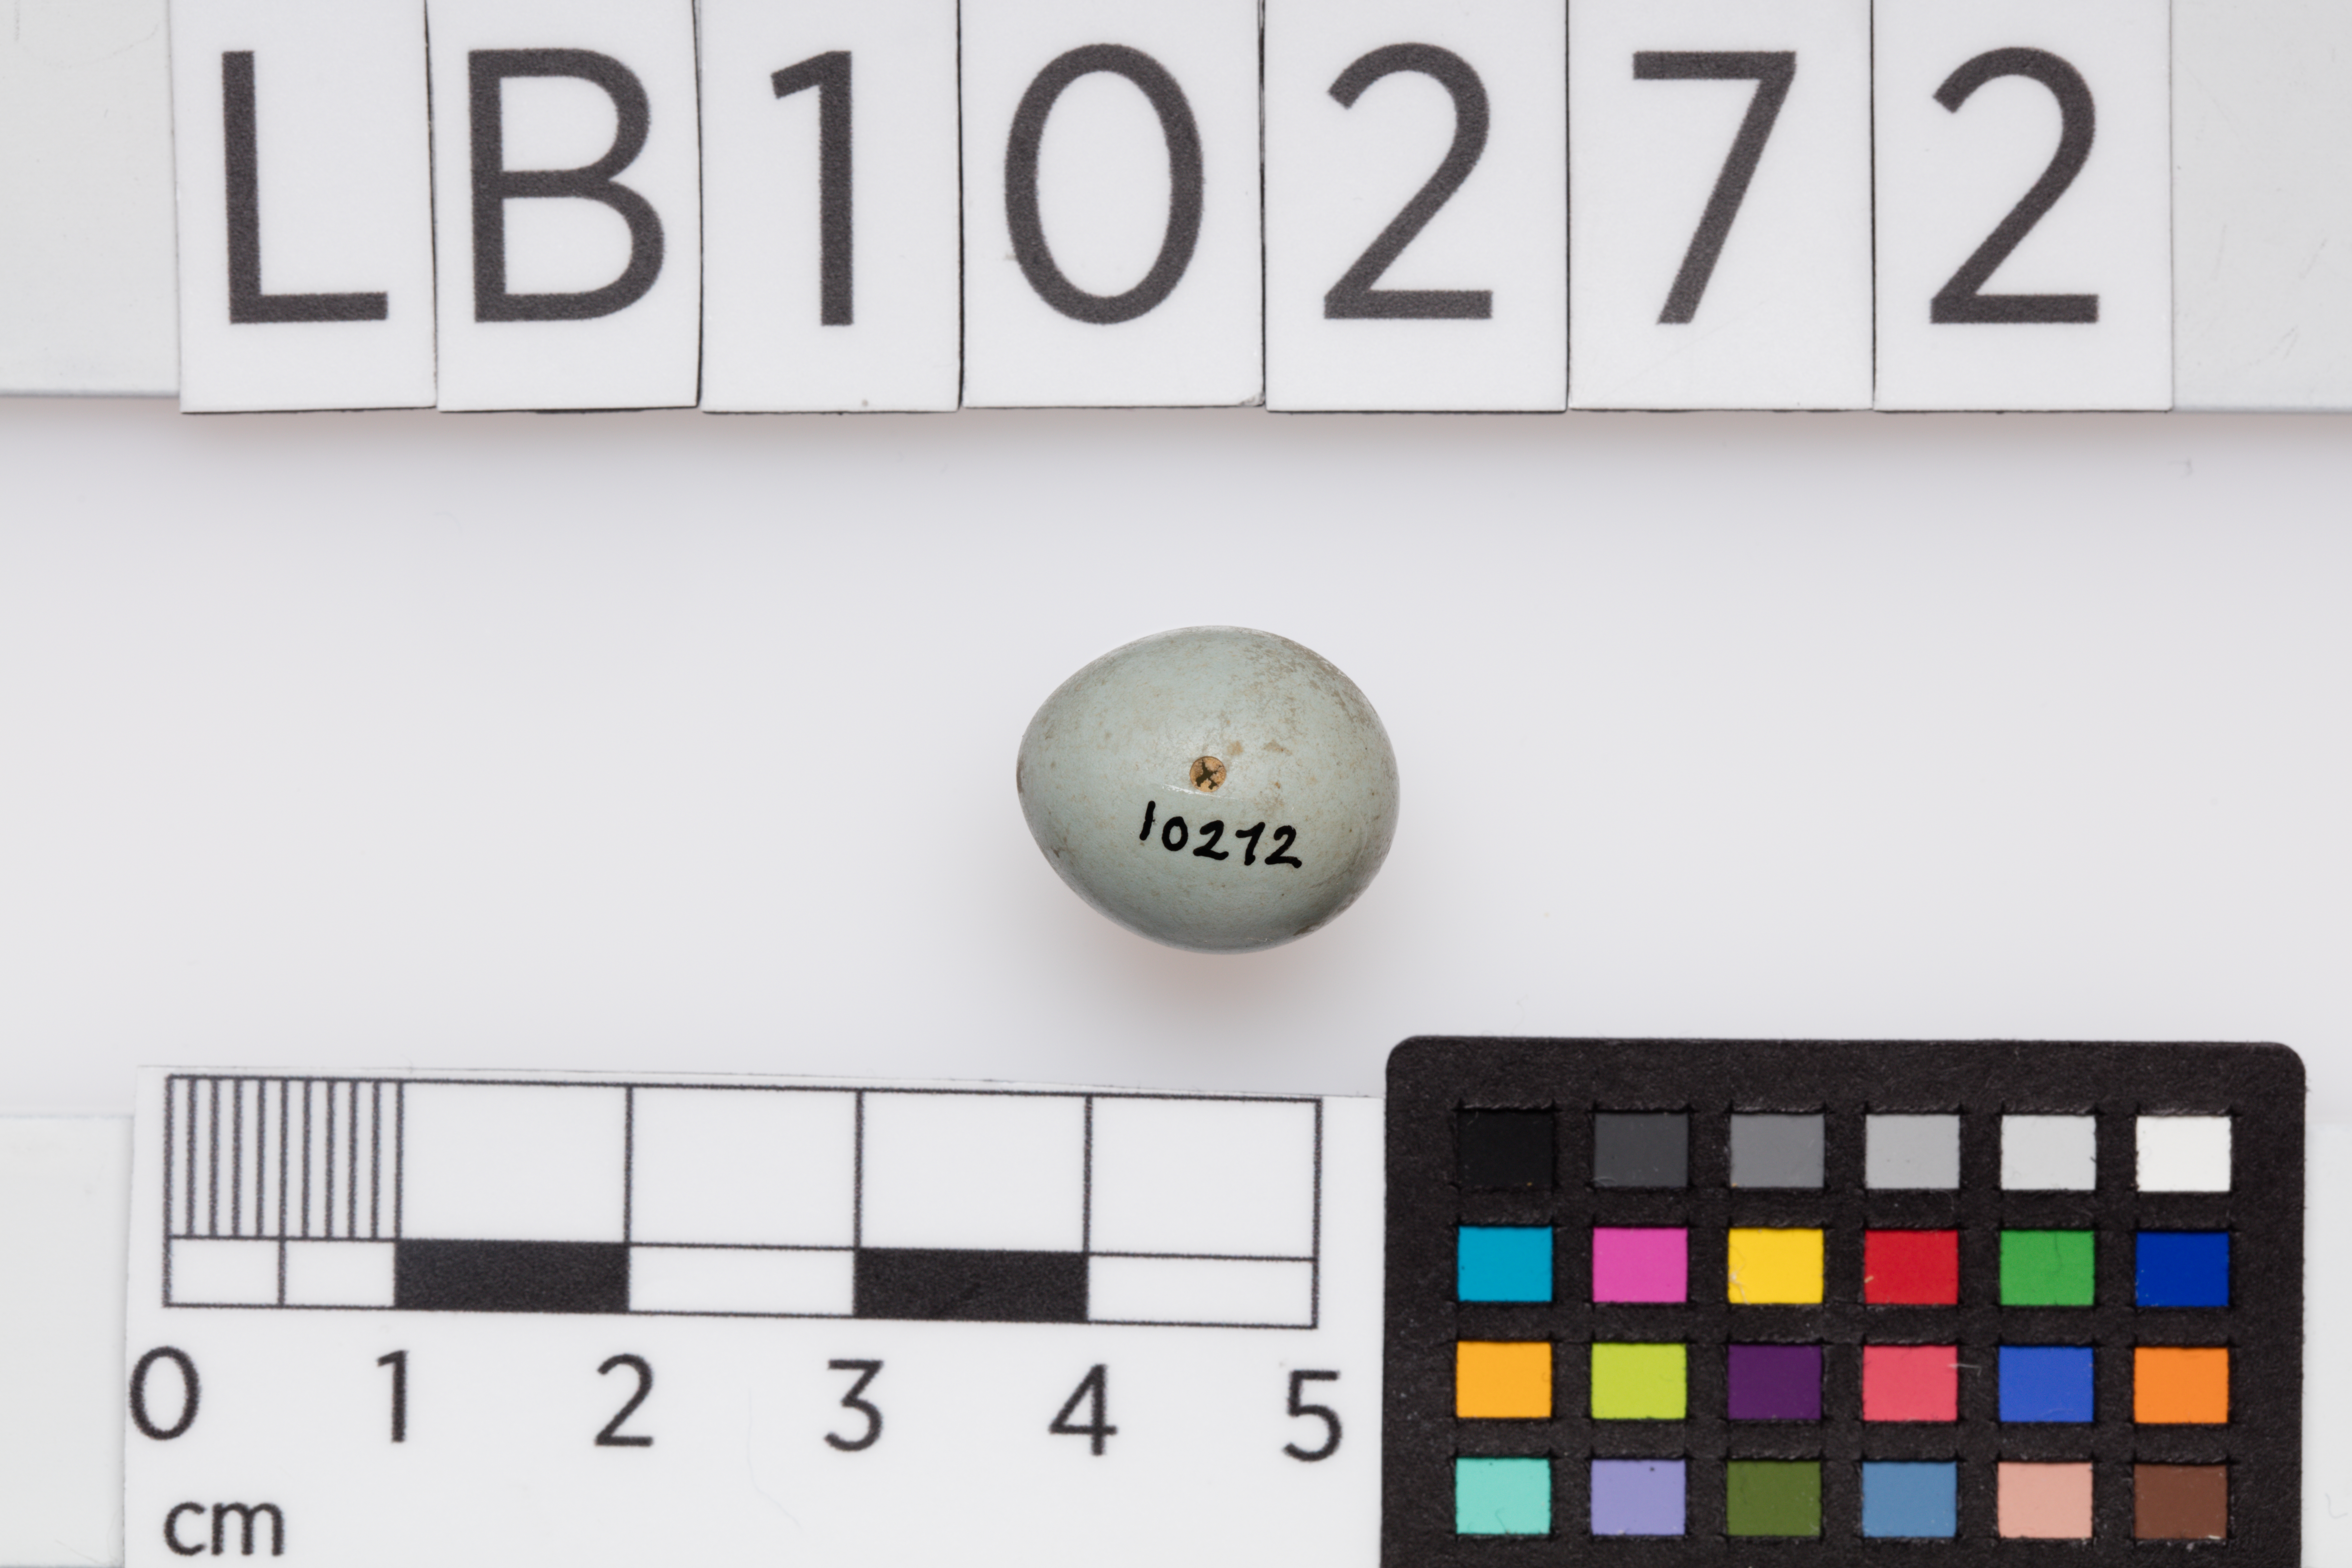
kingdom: Animalia
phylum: Chordata
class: Aves
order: Passeriformes
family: Muscicapidae
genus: Saxicola
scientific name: Saxicola rubetra
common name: Whinchat
